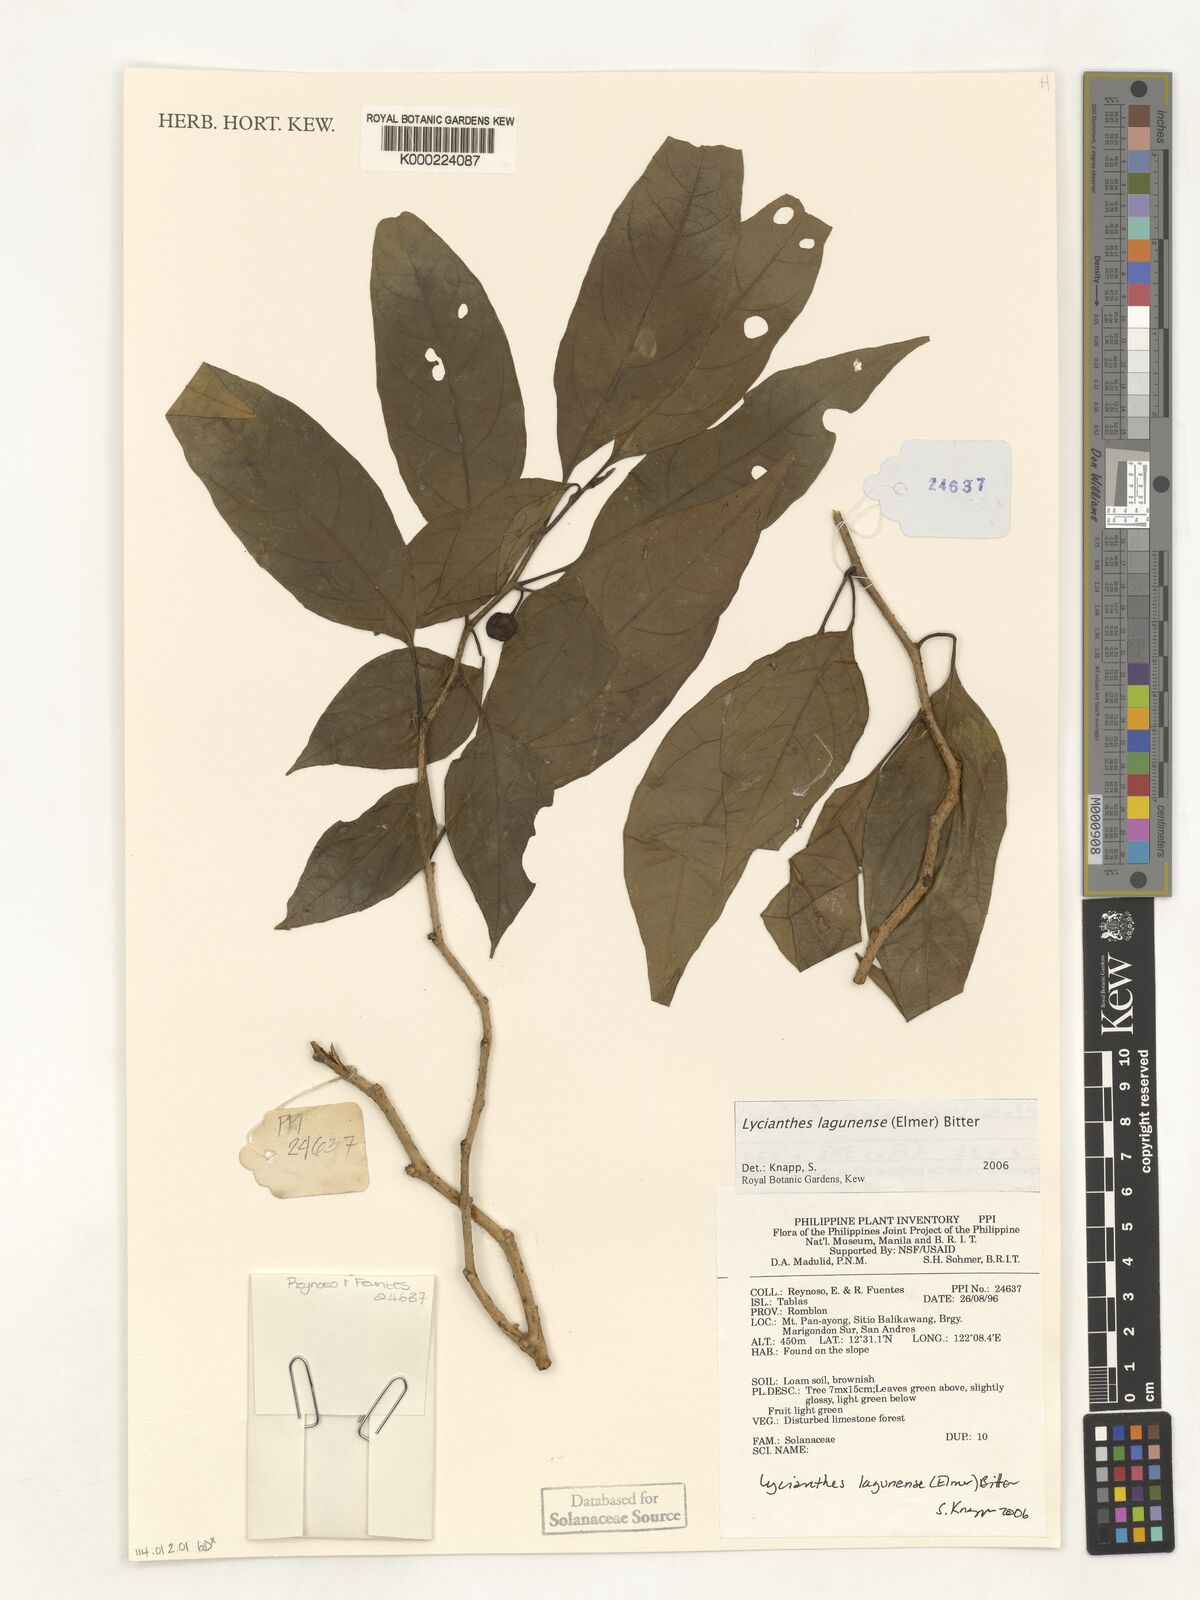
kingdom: Plantae
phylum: Tracheophyta
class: Magnoliopsida
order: Solanales
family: Solanaceae
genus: Lycianthes
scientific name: Lycianthes
